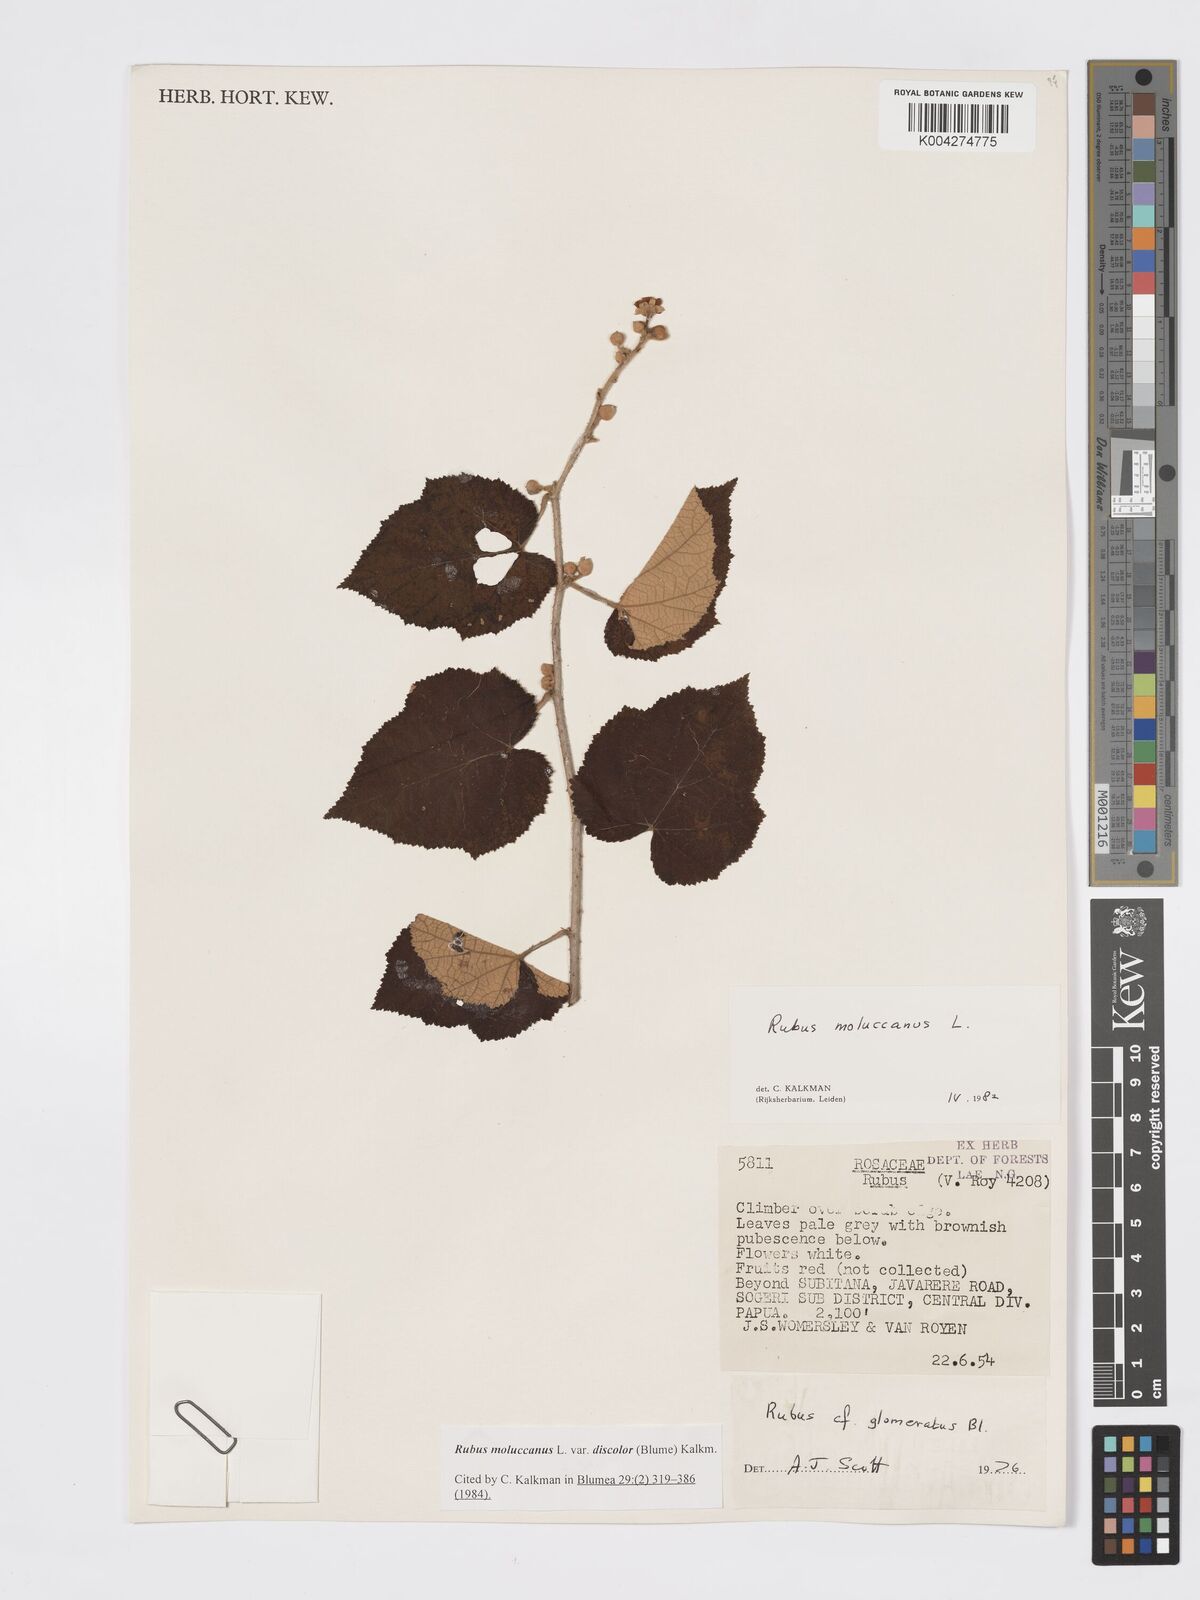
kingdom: Plantae
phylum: Tracheophyta
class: Magnoliopsida
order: Rosales
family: Rosaceae
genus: Rubus
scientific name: Rubus moluccanus
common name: Wild raspberry
